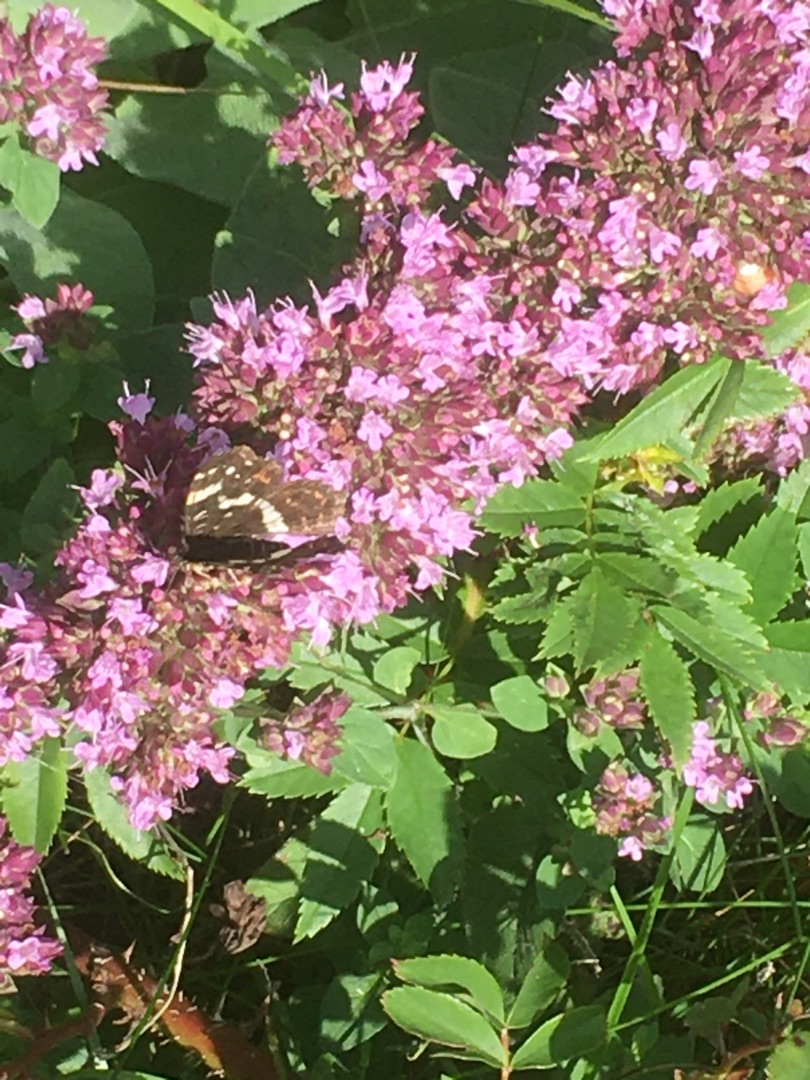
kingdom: Animalia
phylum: Arthropoda
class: Insecta
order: Lepidoptera
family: Nymphalidae
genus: Araschnia
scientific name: Araschnia levana
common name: Nældesommerfugl
